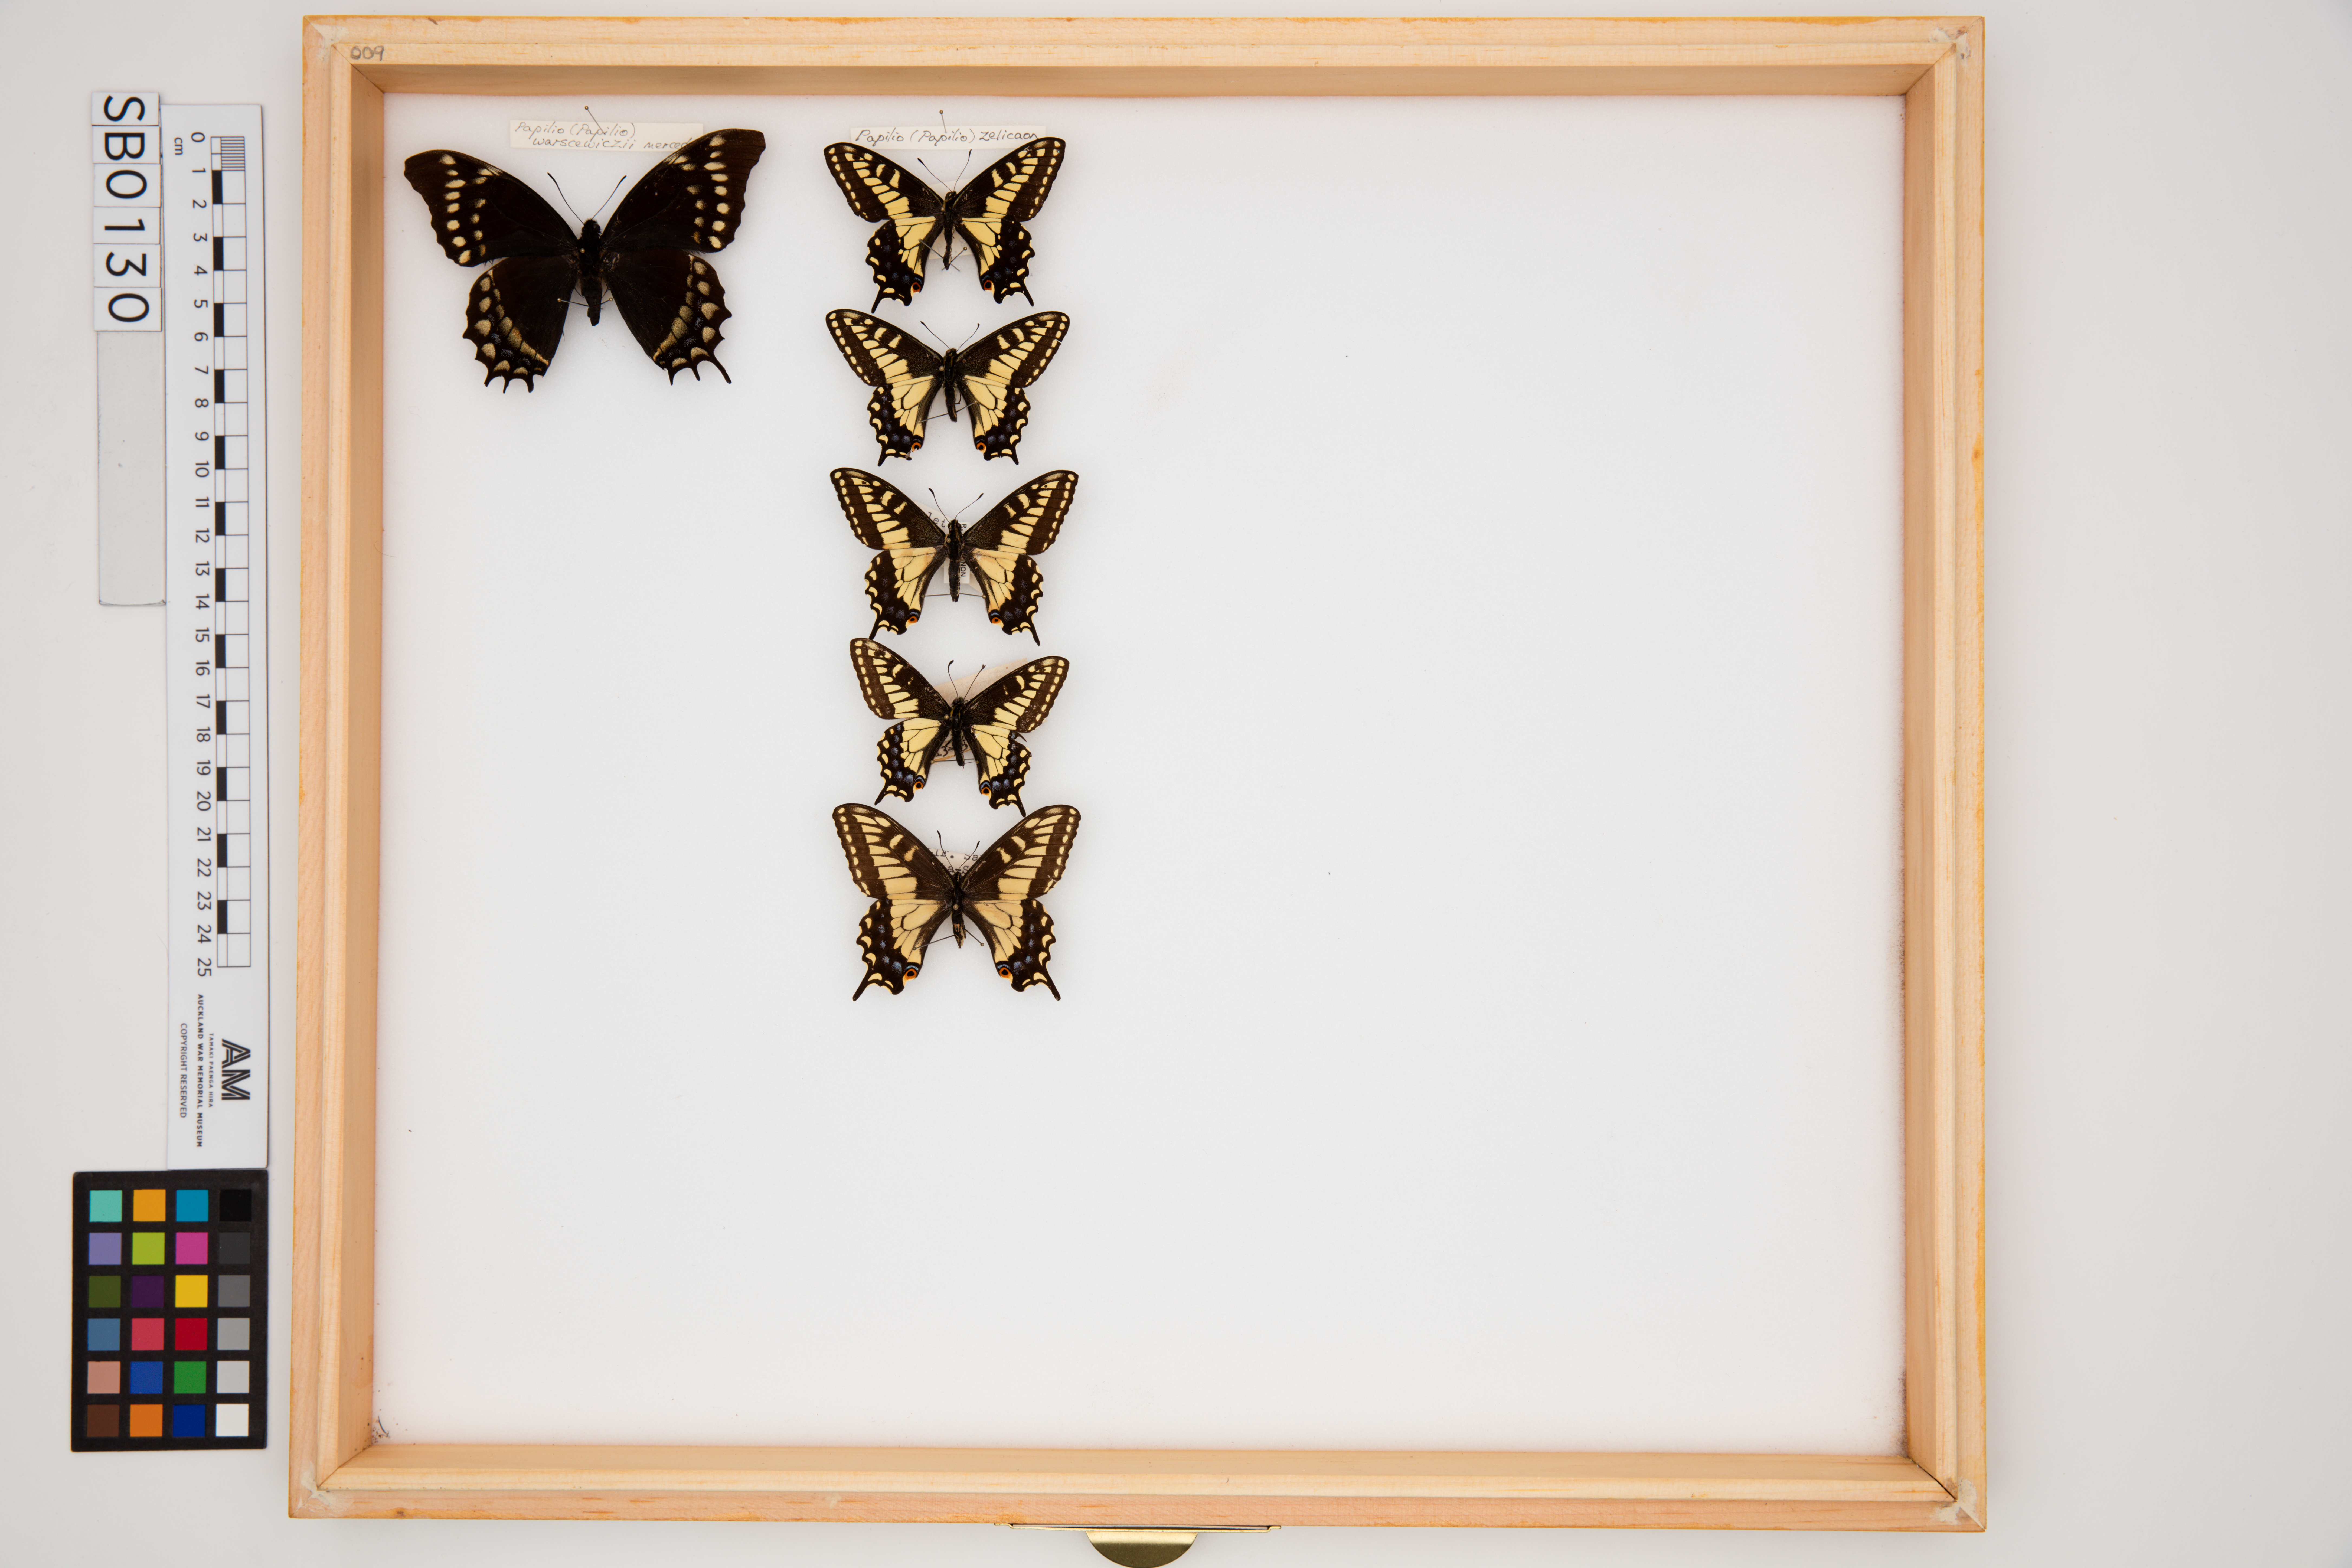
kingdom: Animalia
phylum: Arthropoda
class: Insecta
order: Lepidoptera
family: Papilionidae
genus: Papilio
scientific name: Papilio zelicaon
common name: Anise swallowtail
